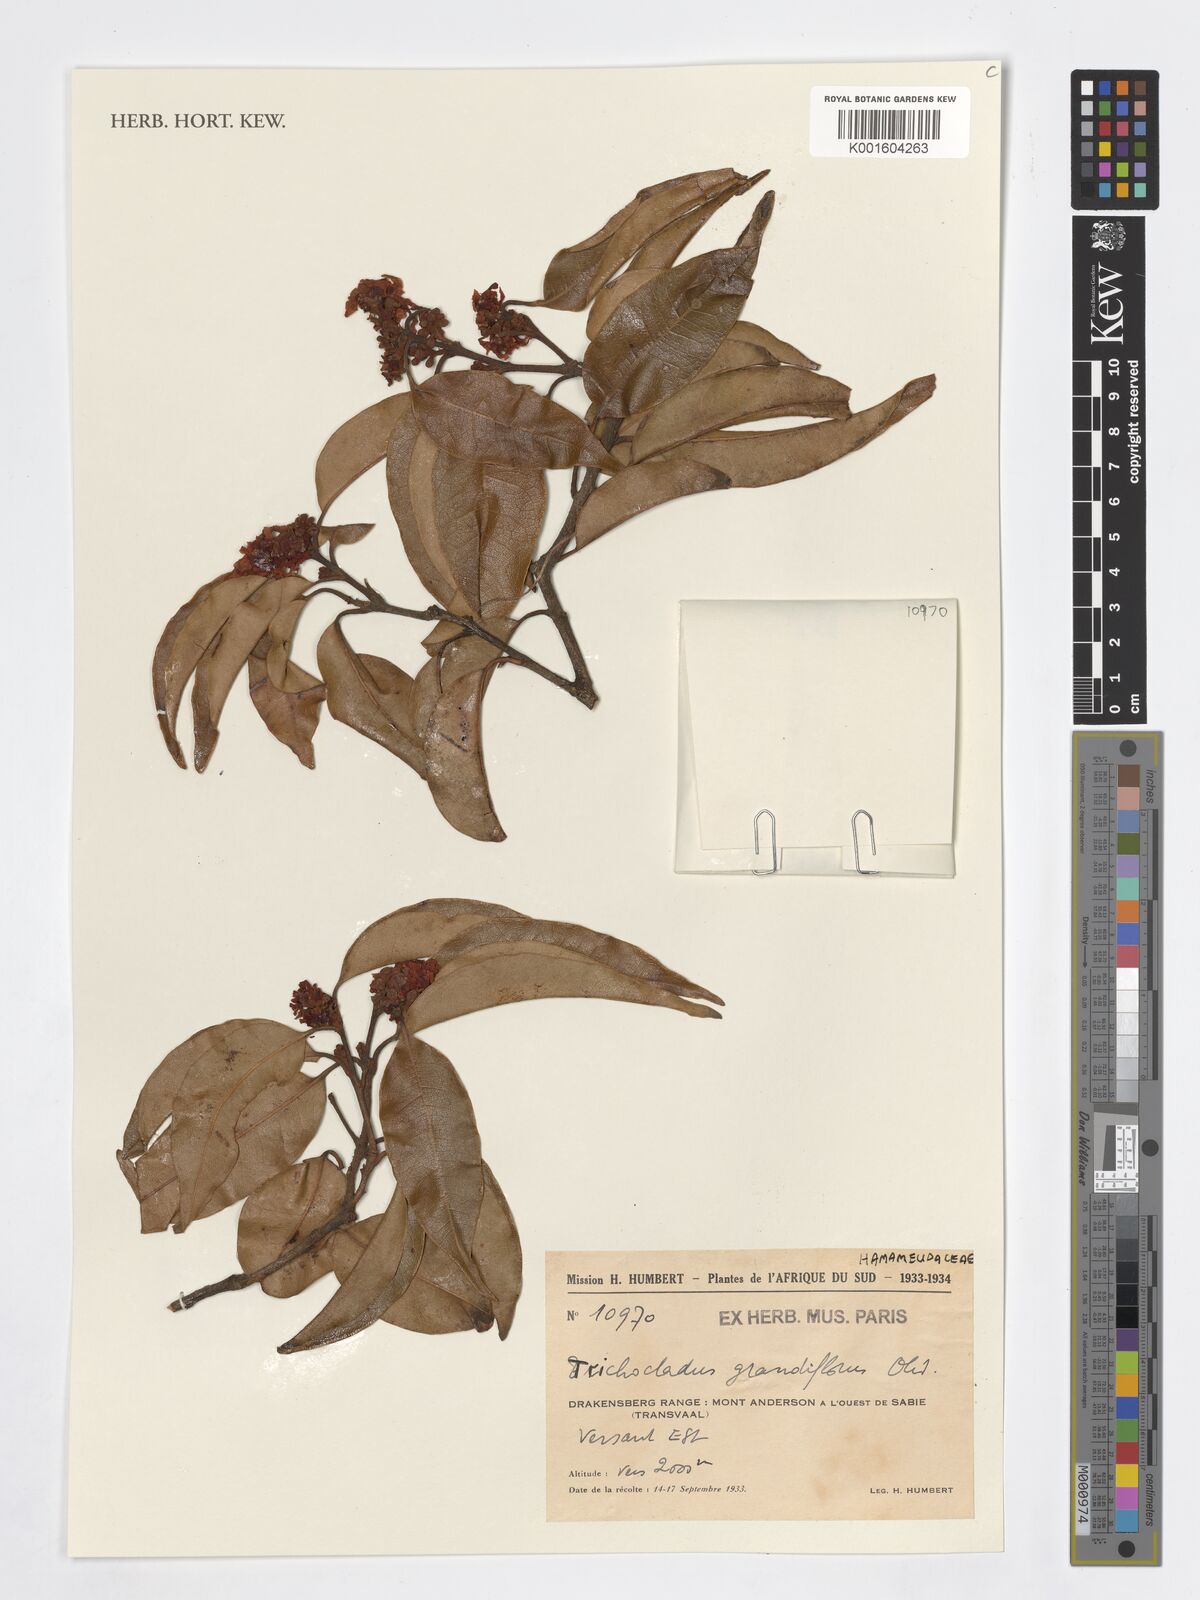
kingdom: Plantae
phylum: Tracheophyta
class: Magnoliopsida
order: Saxifragales
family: Hamamelidaceae
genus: Trichocladus
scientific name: Trichocladus grandiflorus
